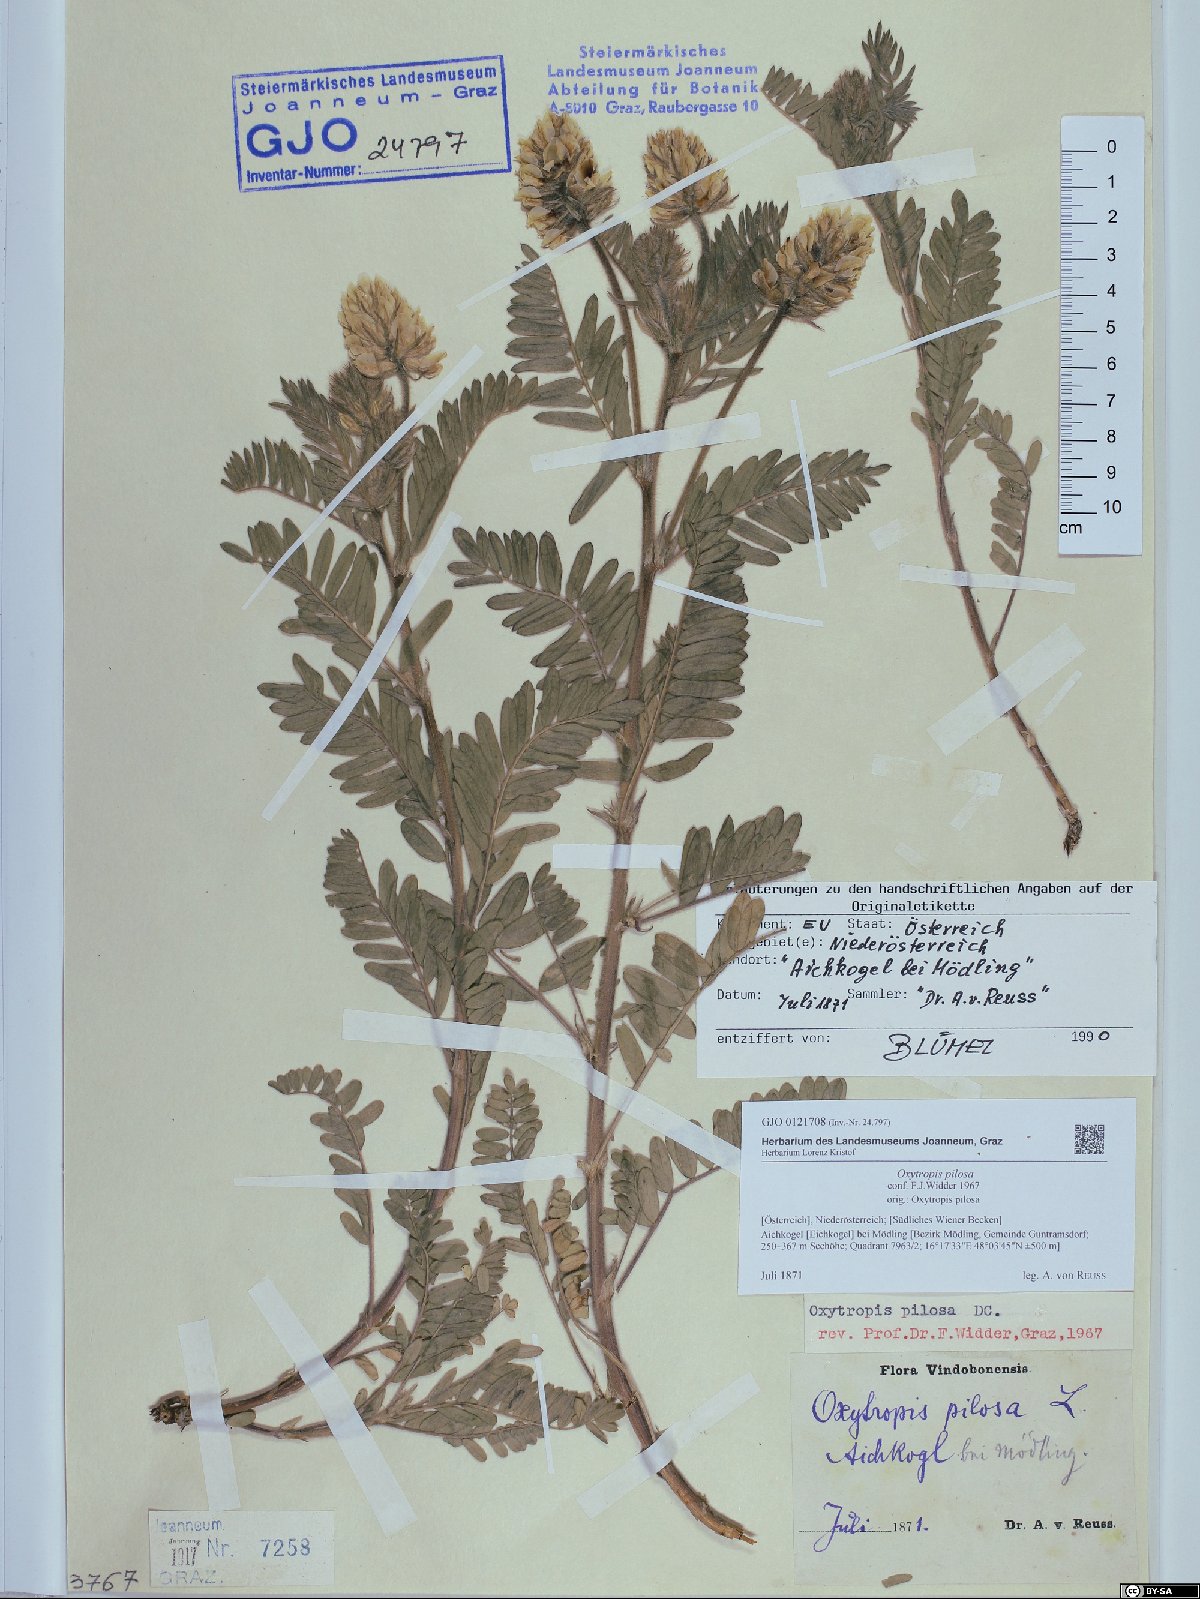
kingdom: Plantae
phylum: Tracheophyta
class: Magnoliopsida
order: Fabales
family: Fabaceae
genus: Oxytropis
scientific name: Oxytropis pilosa
